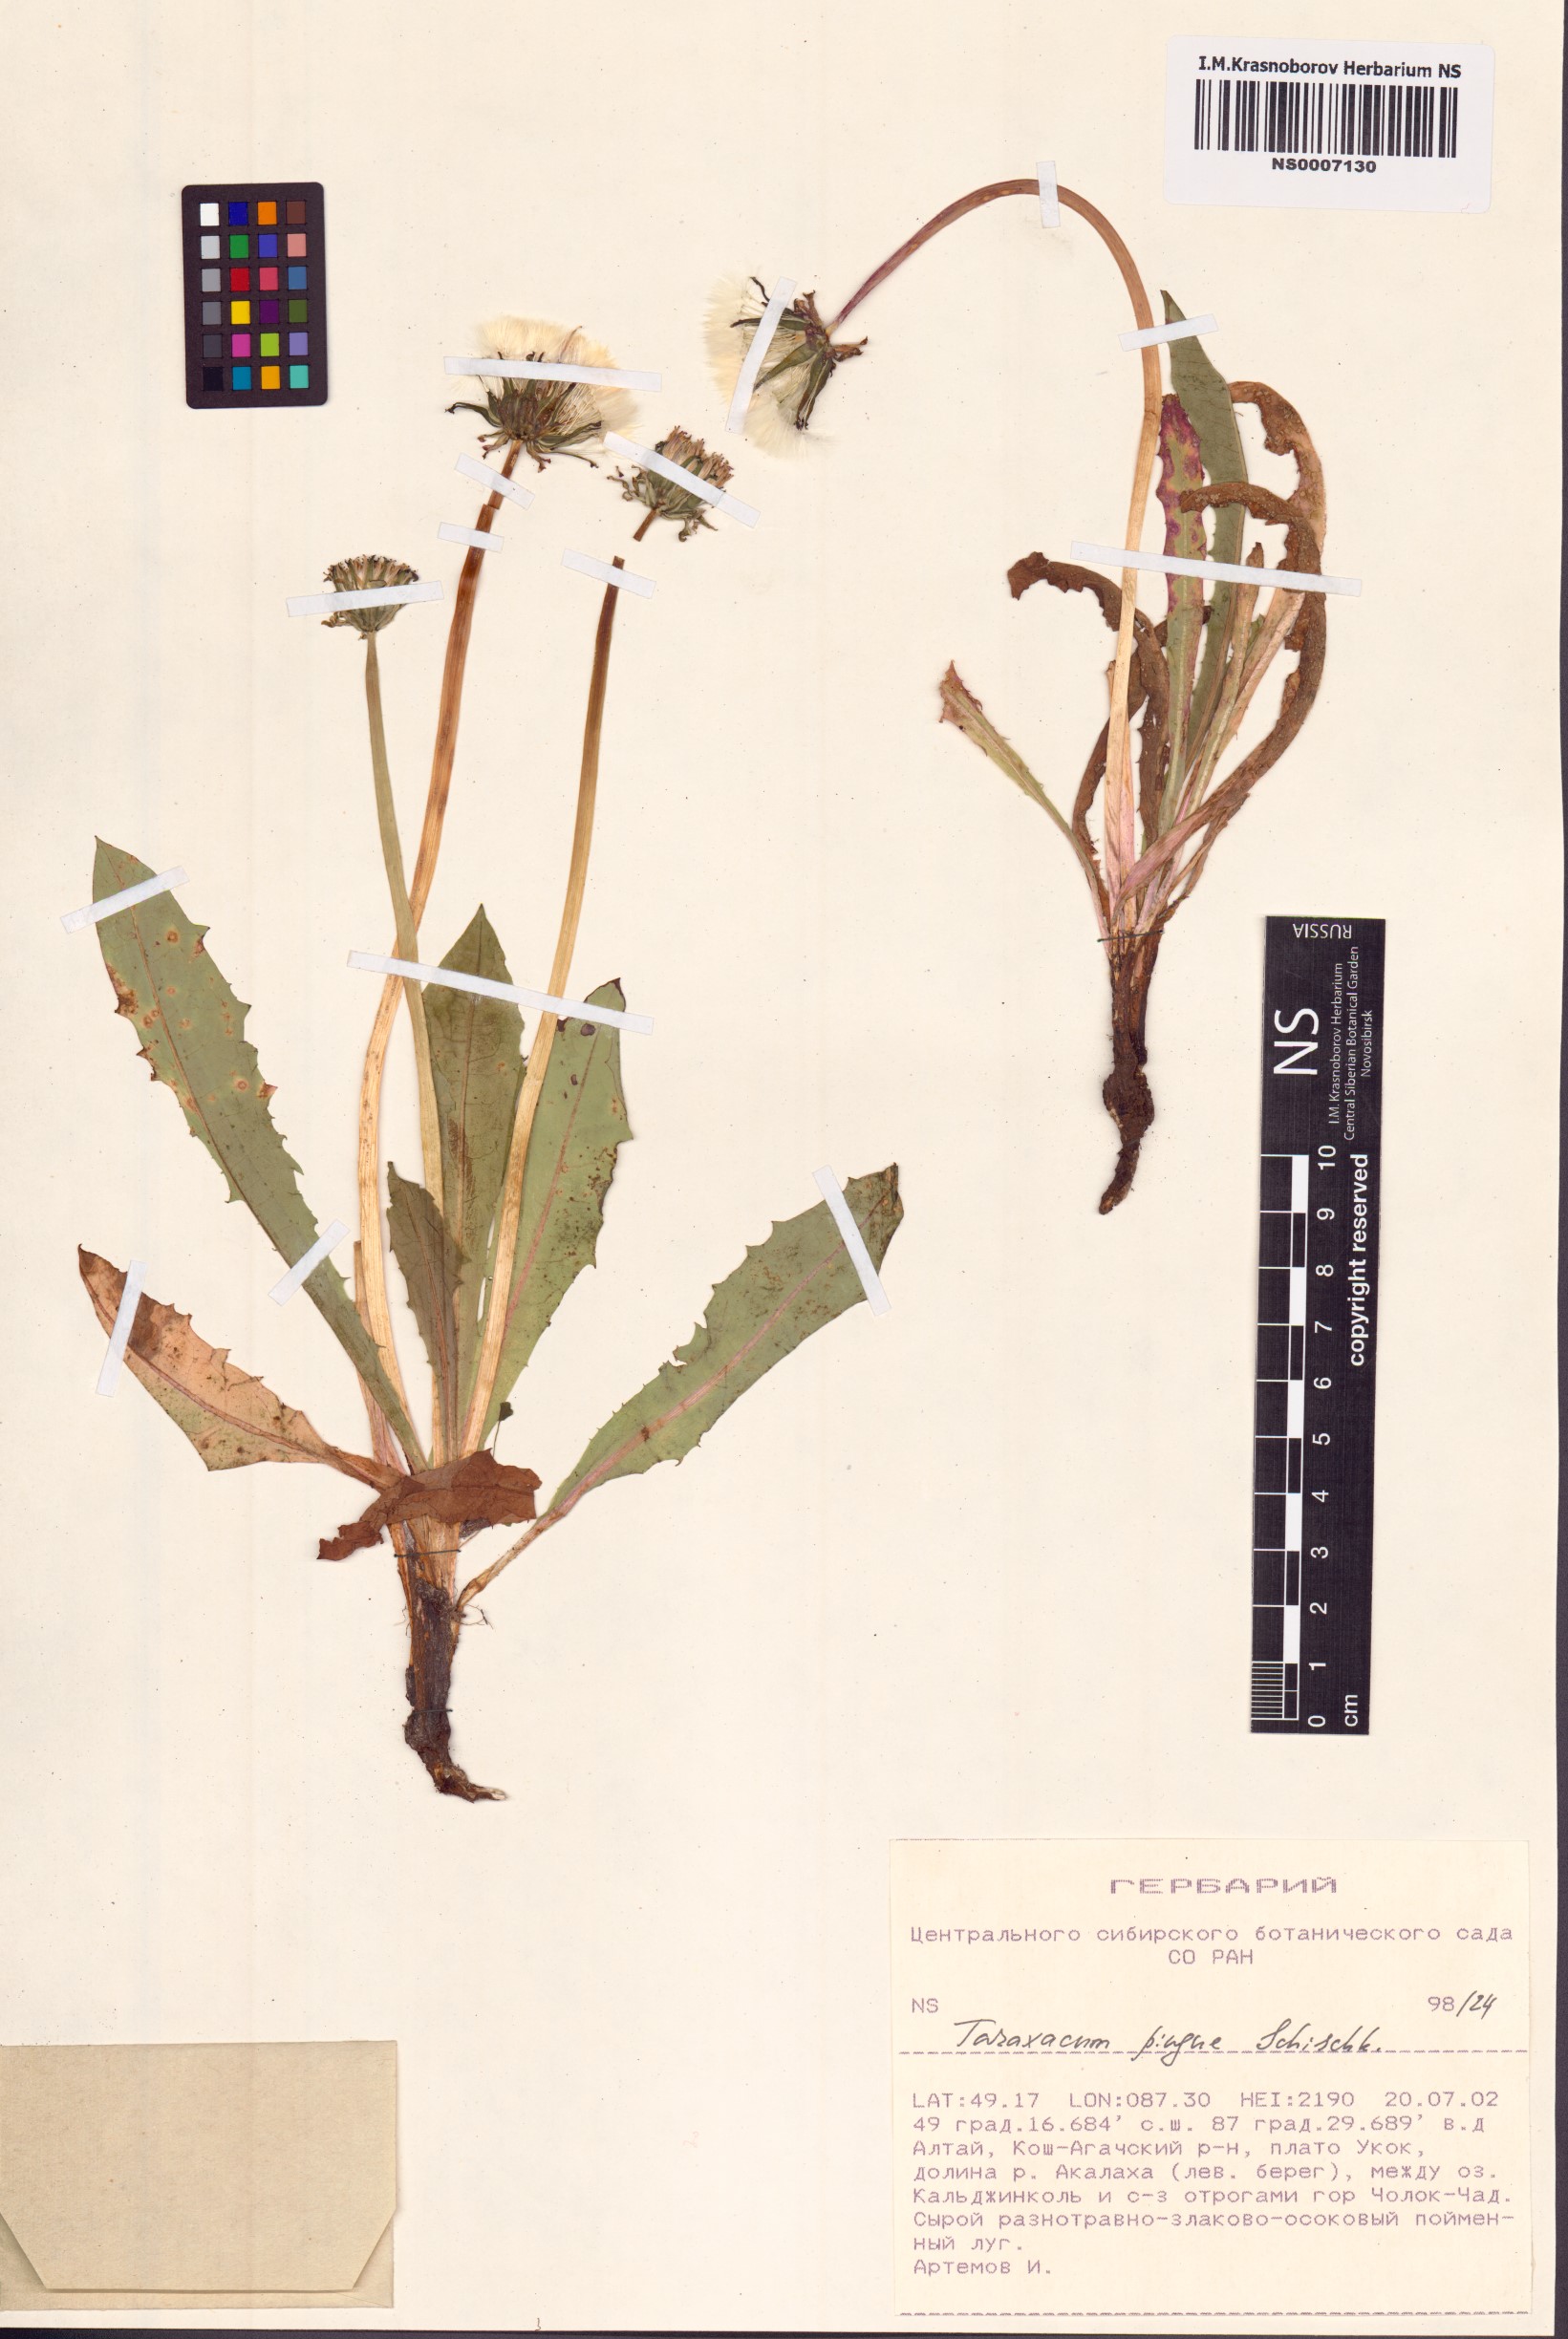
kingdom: Plantae
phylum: Tracheophyta
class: Magnoliopsida
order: Asterales
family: Asteraceae
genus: Taraxacum
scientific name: Taraxacum pingue
